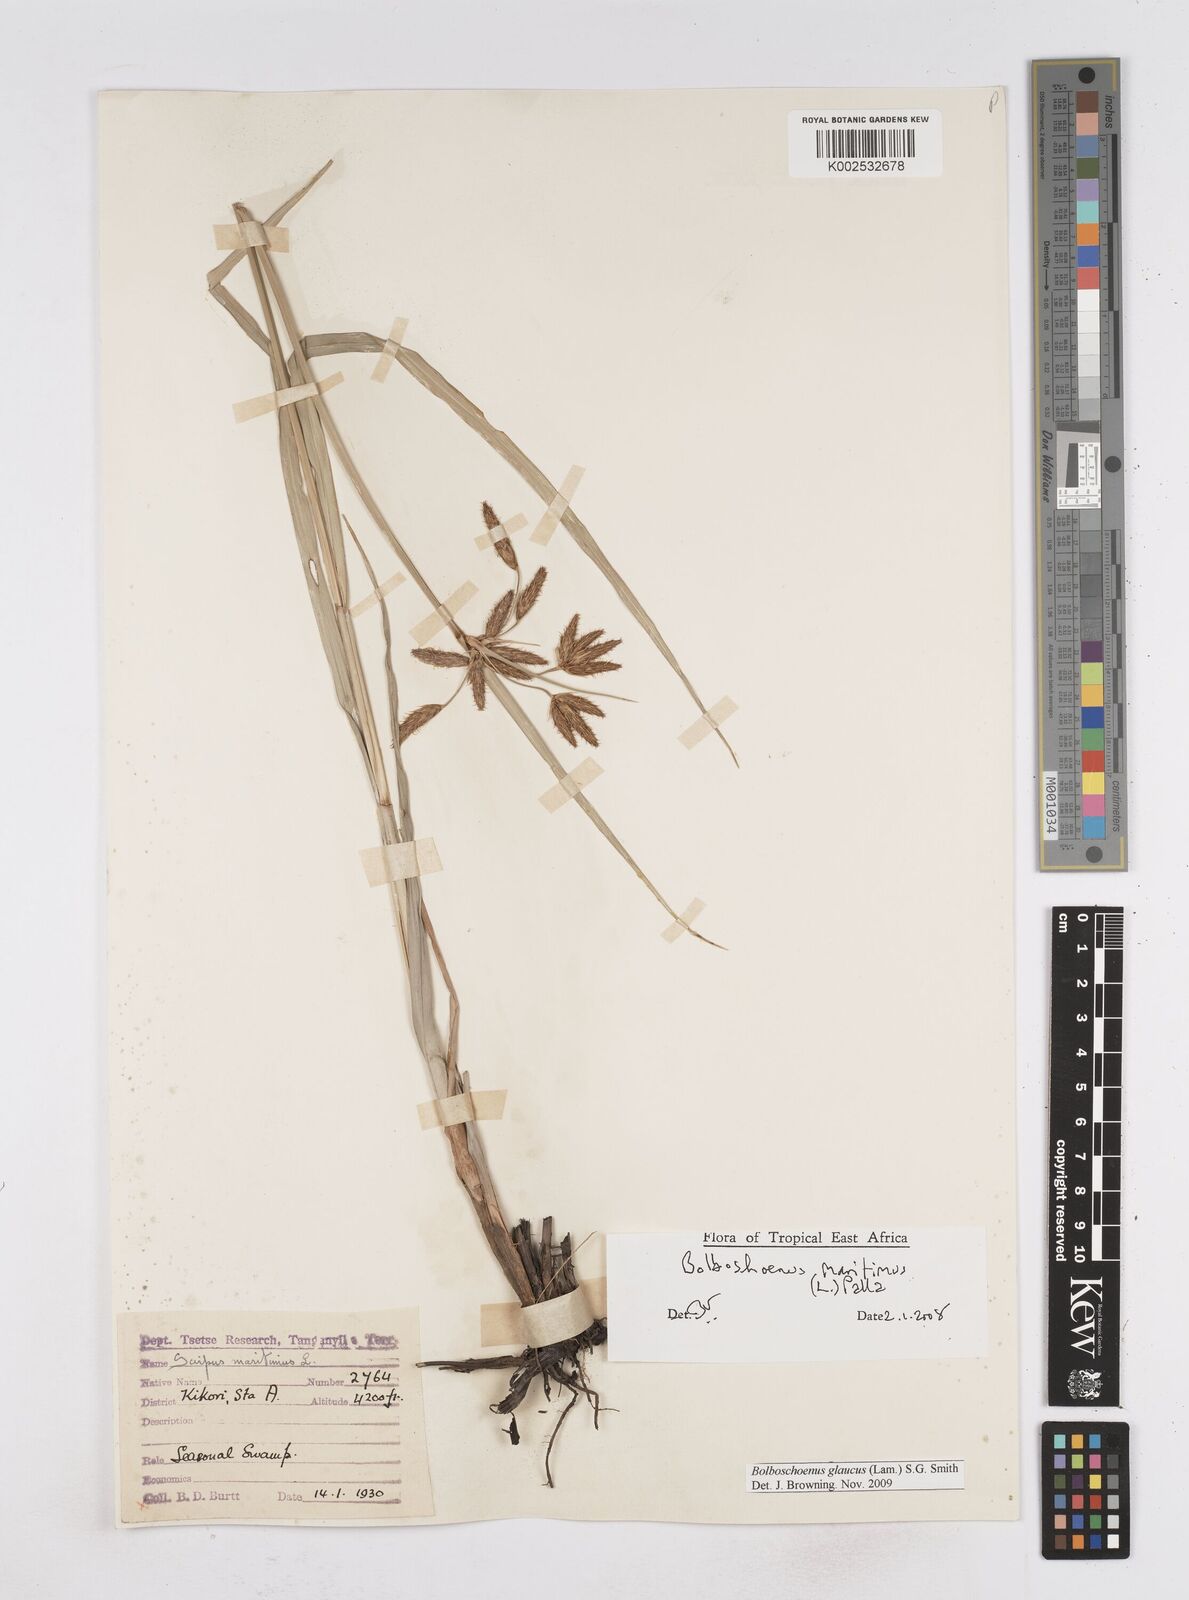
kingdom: Plantae
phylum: Tracheophyta
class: Liliopsida
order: Poales
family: Cyperaceae
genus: Bolboschoenus
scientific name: Bolboschoenus glaucus
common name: Tuberous bulrush
